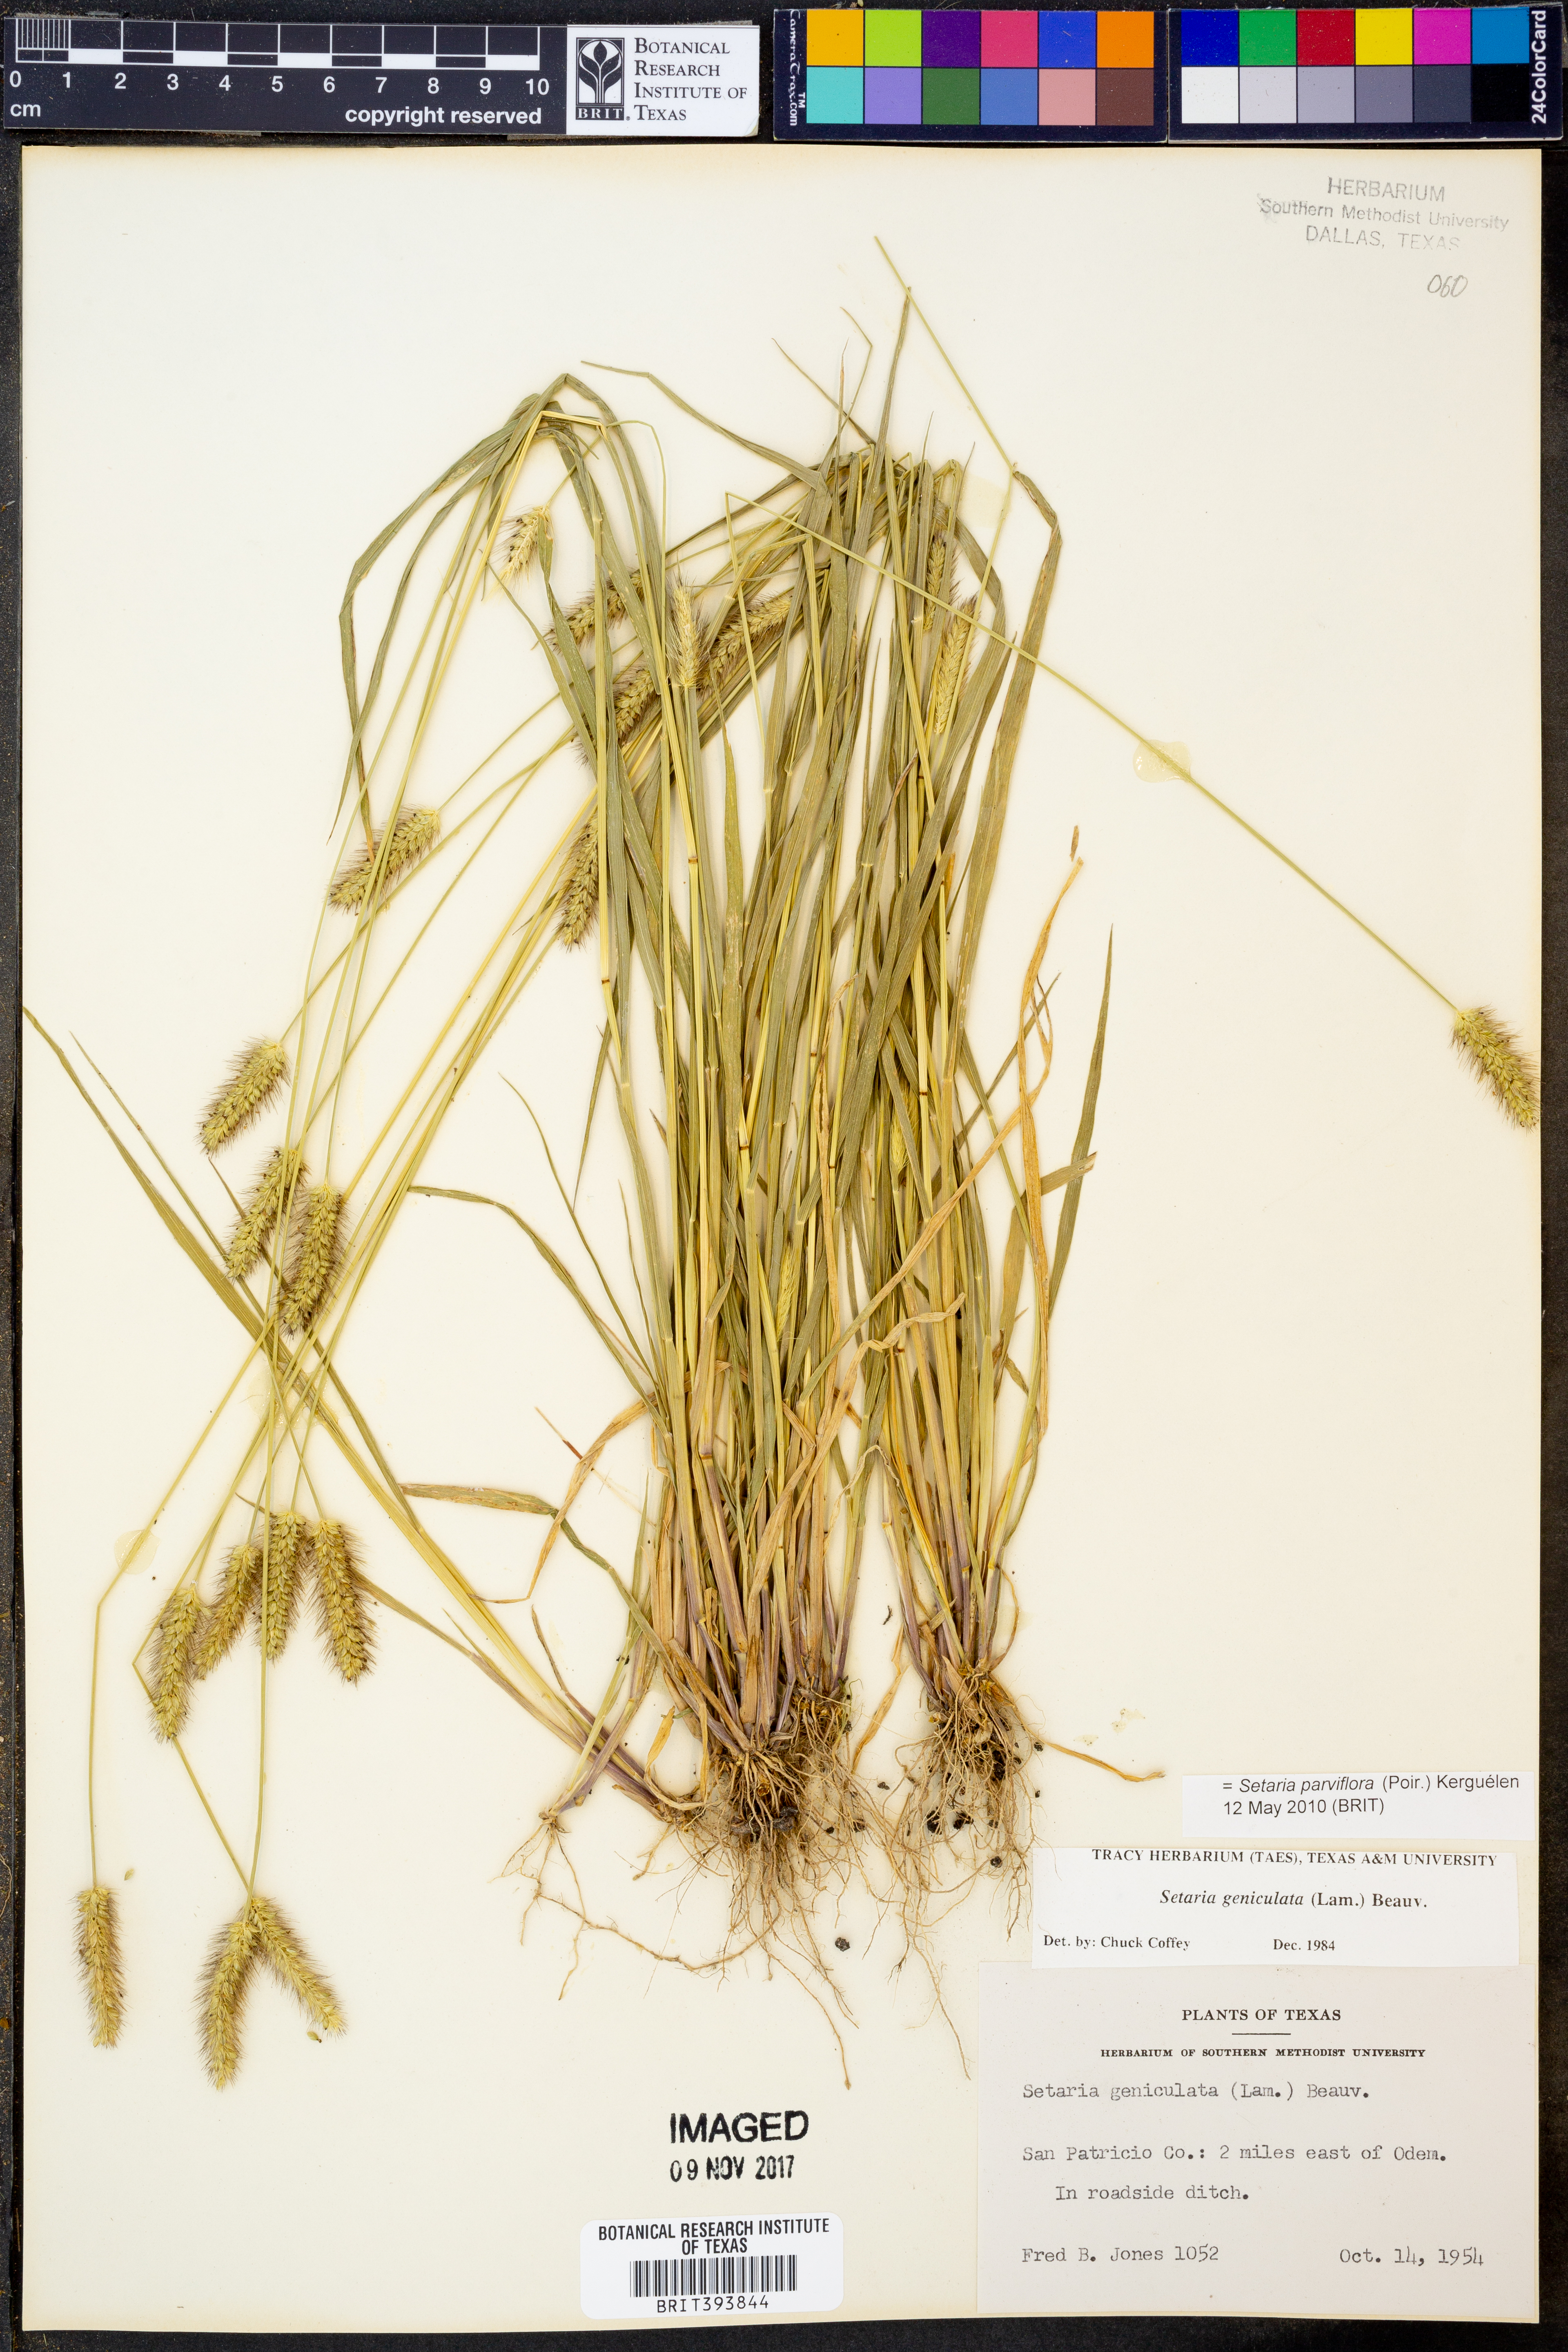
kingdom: Plantae
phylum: Tracheophyta
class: Liliopsida
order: Poales
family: Poaceae
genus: Setaria
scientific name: Setaria parviflora
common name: Knotroot bristle-grass
